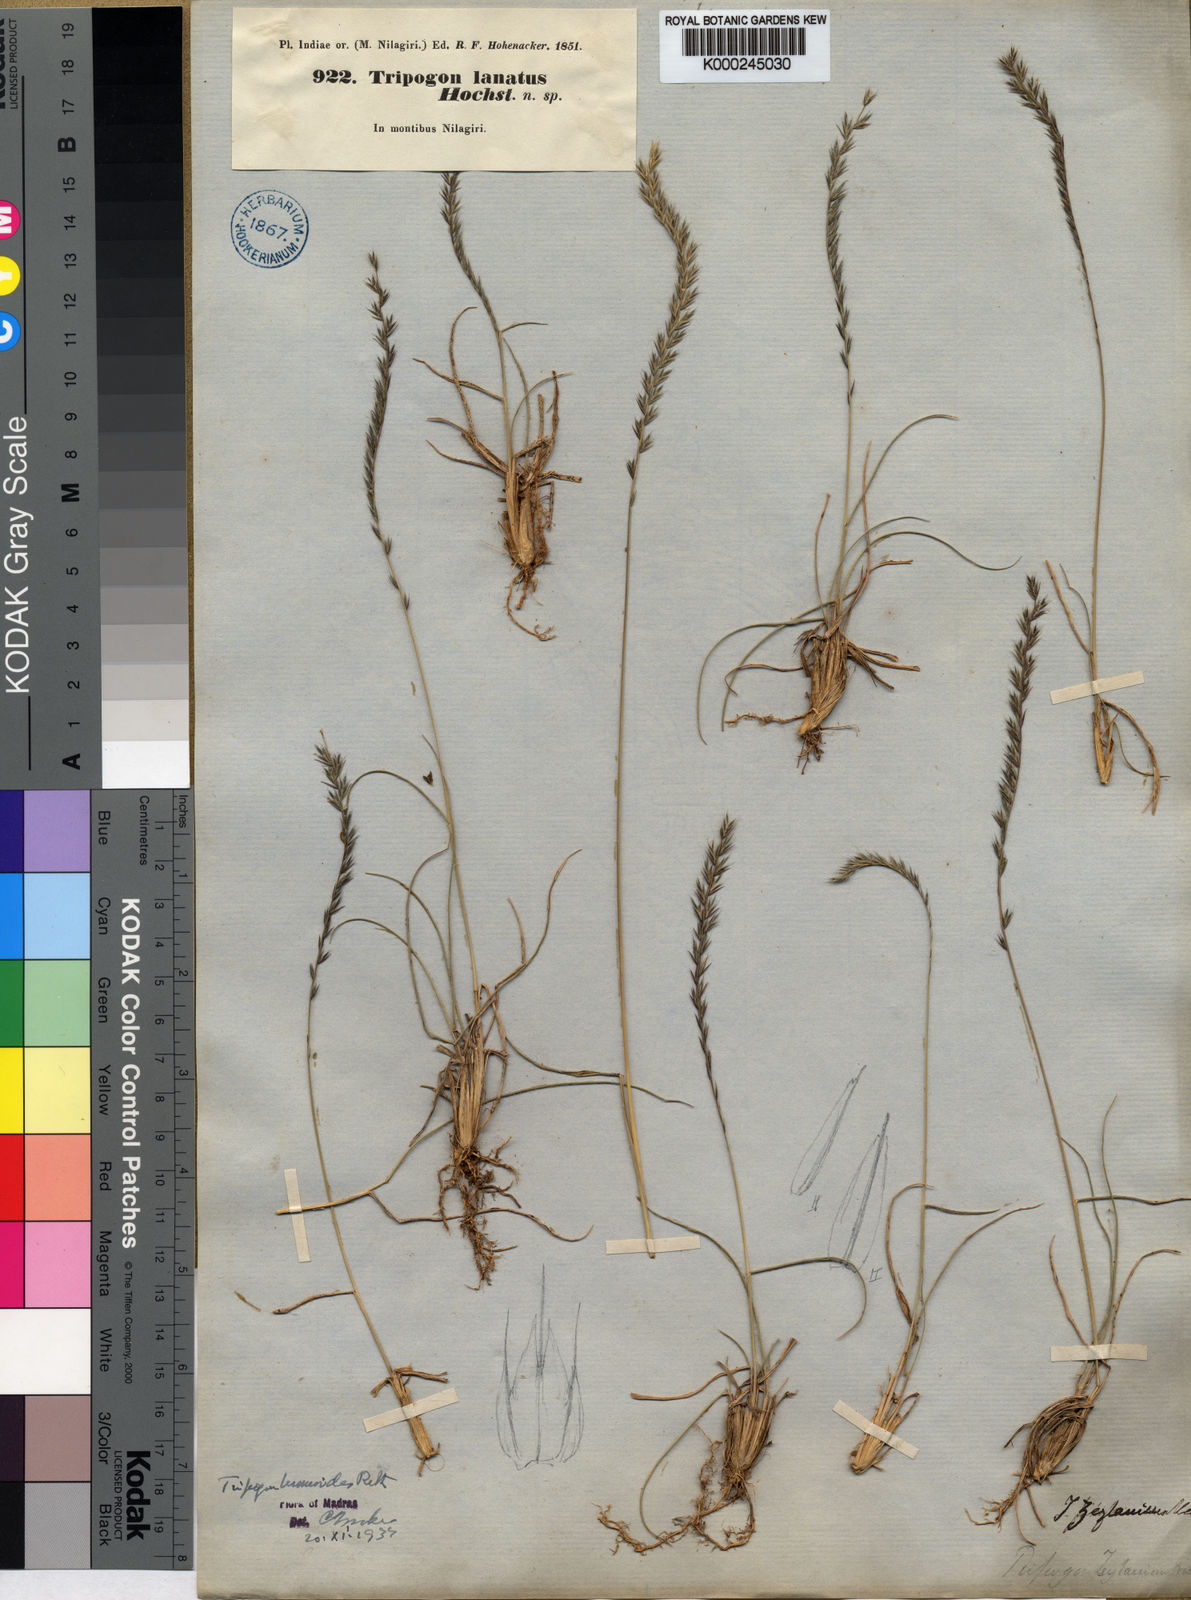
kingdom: Plantae
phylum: Tracheophyta
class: Liliopsida
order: Poales
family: Poaceae
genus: Tripogon
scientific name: Tripogon
